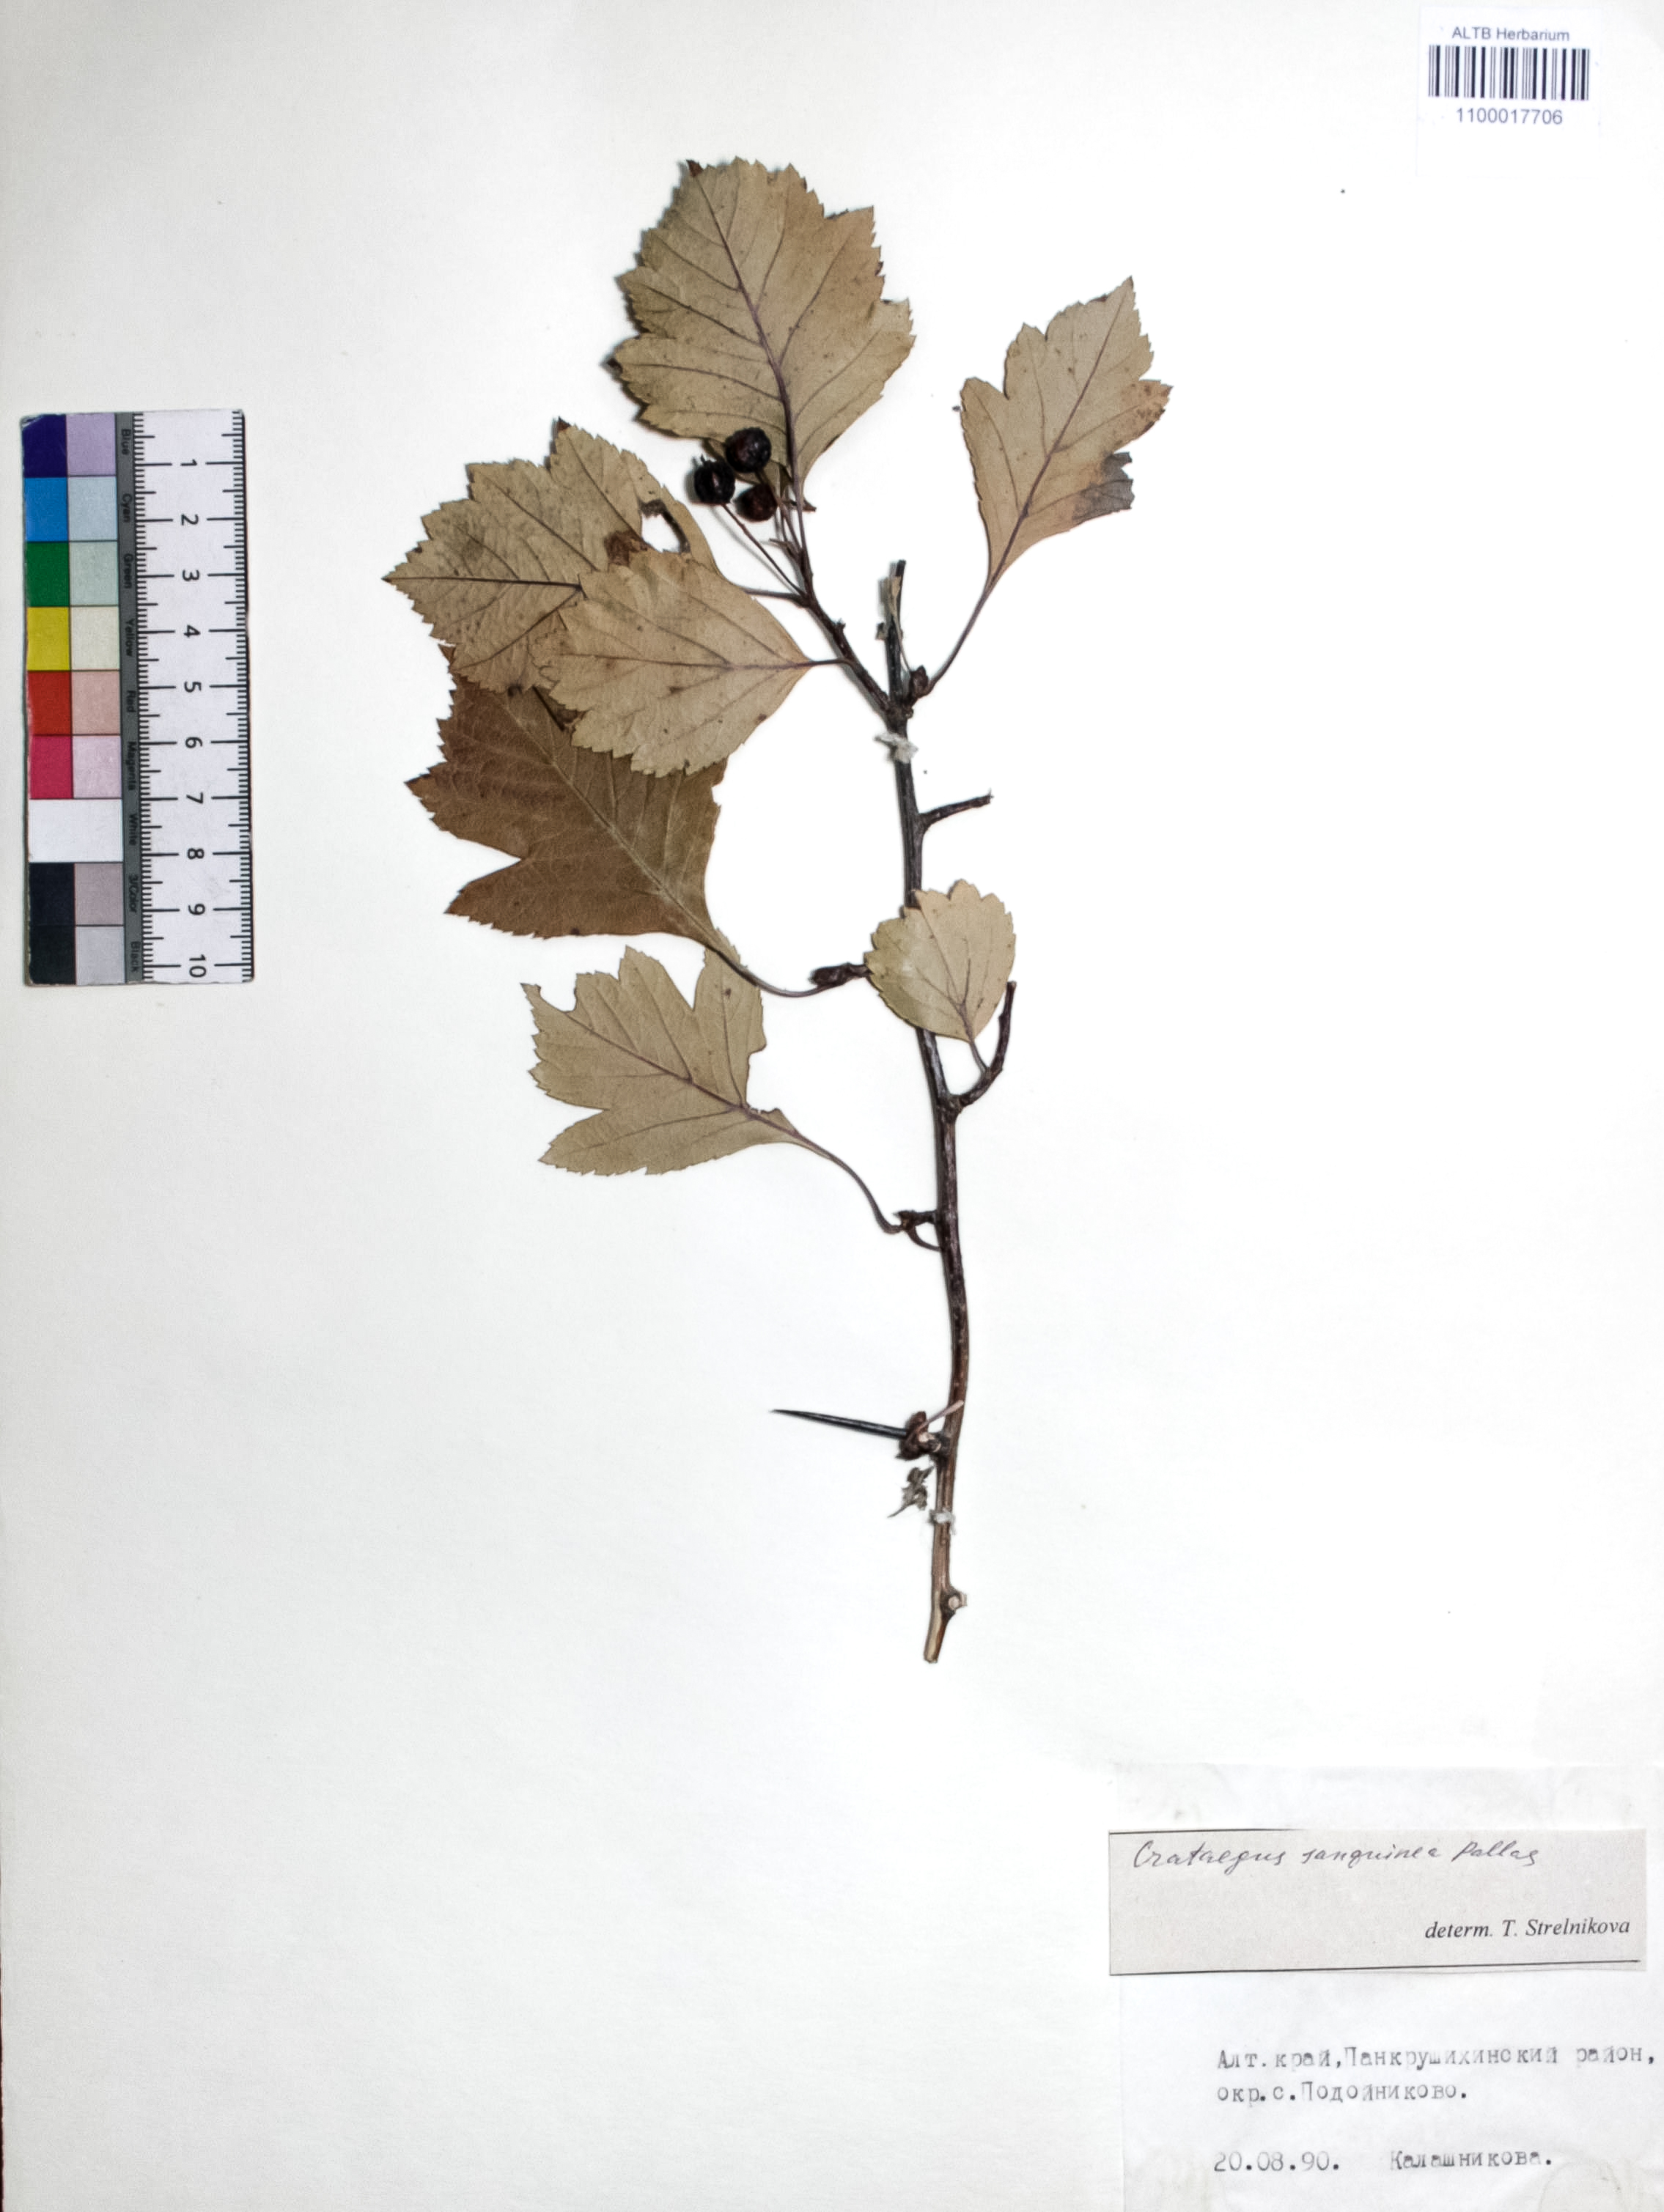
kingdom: Plantae
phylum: Tracheophyta
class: Magnoliopsida
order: Rosales
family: Rosaceae
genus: Crataegus
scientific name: Crataegus sanguinea
